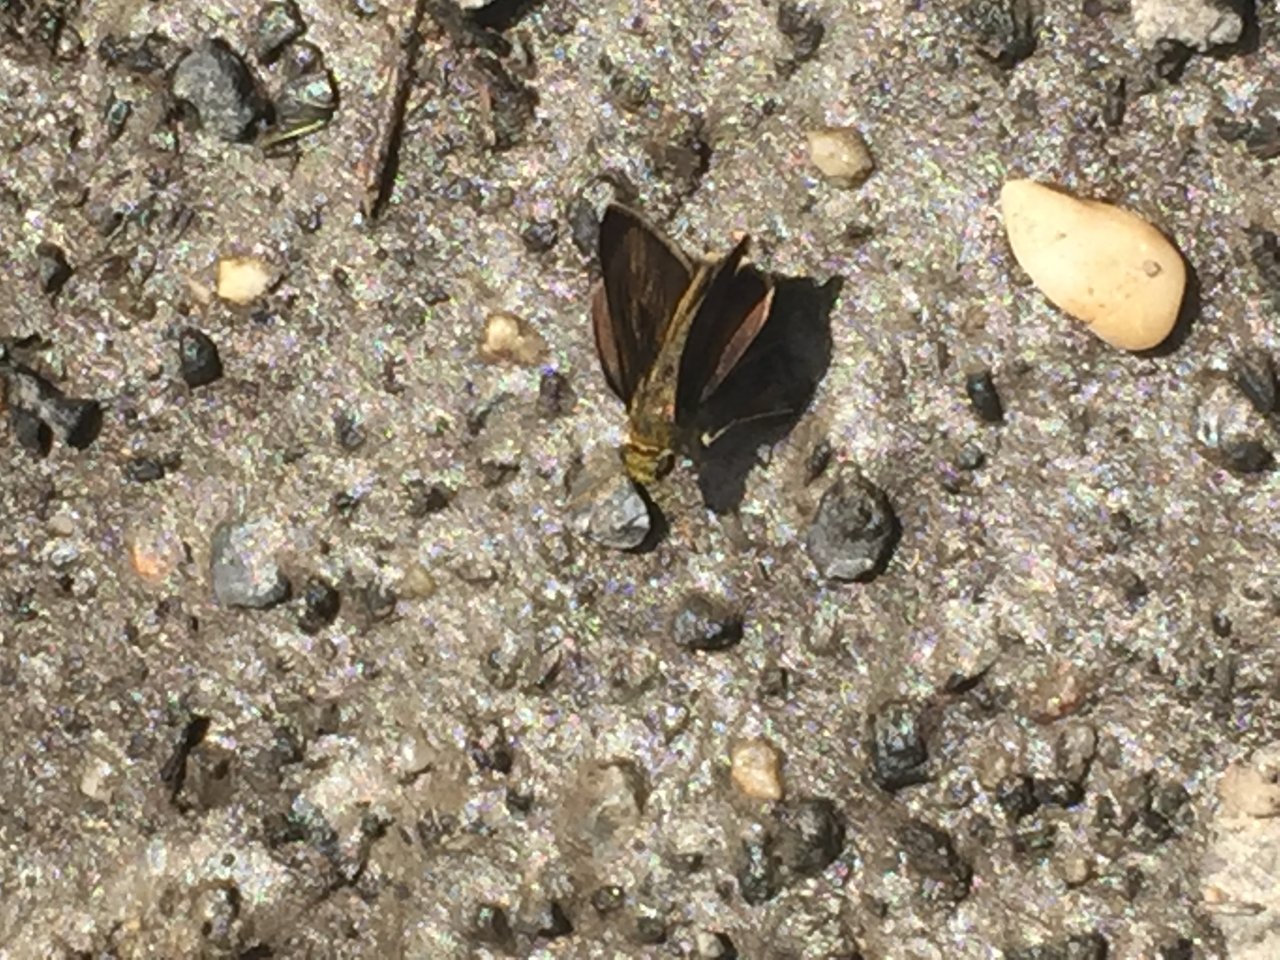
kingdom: Animalia
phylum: Arthropoda
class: Insecta
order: Lepidoptera
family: Hesperiidae
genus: Euphyes
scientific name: Euphyes vestris
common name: Dun Skipper
